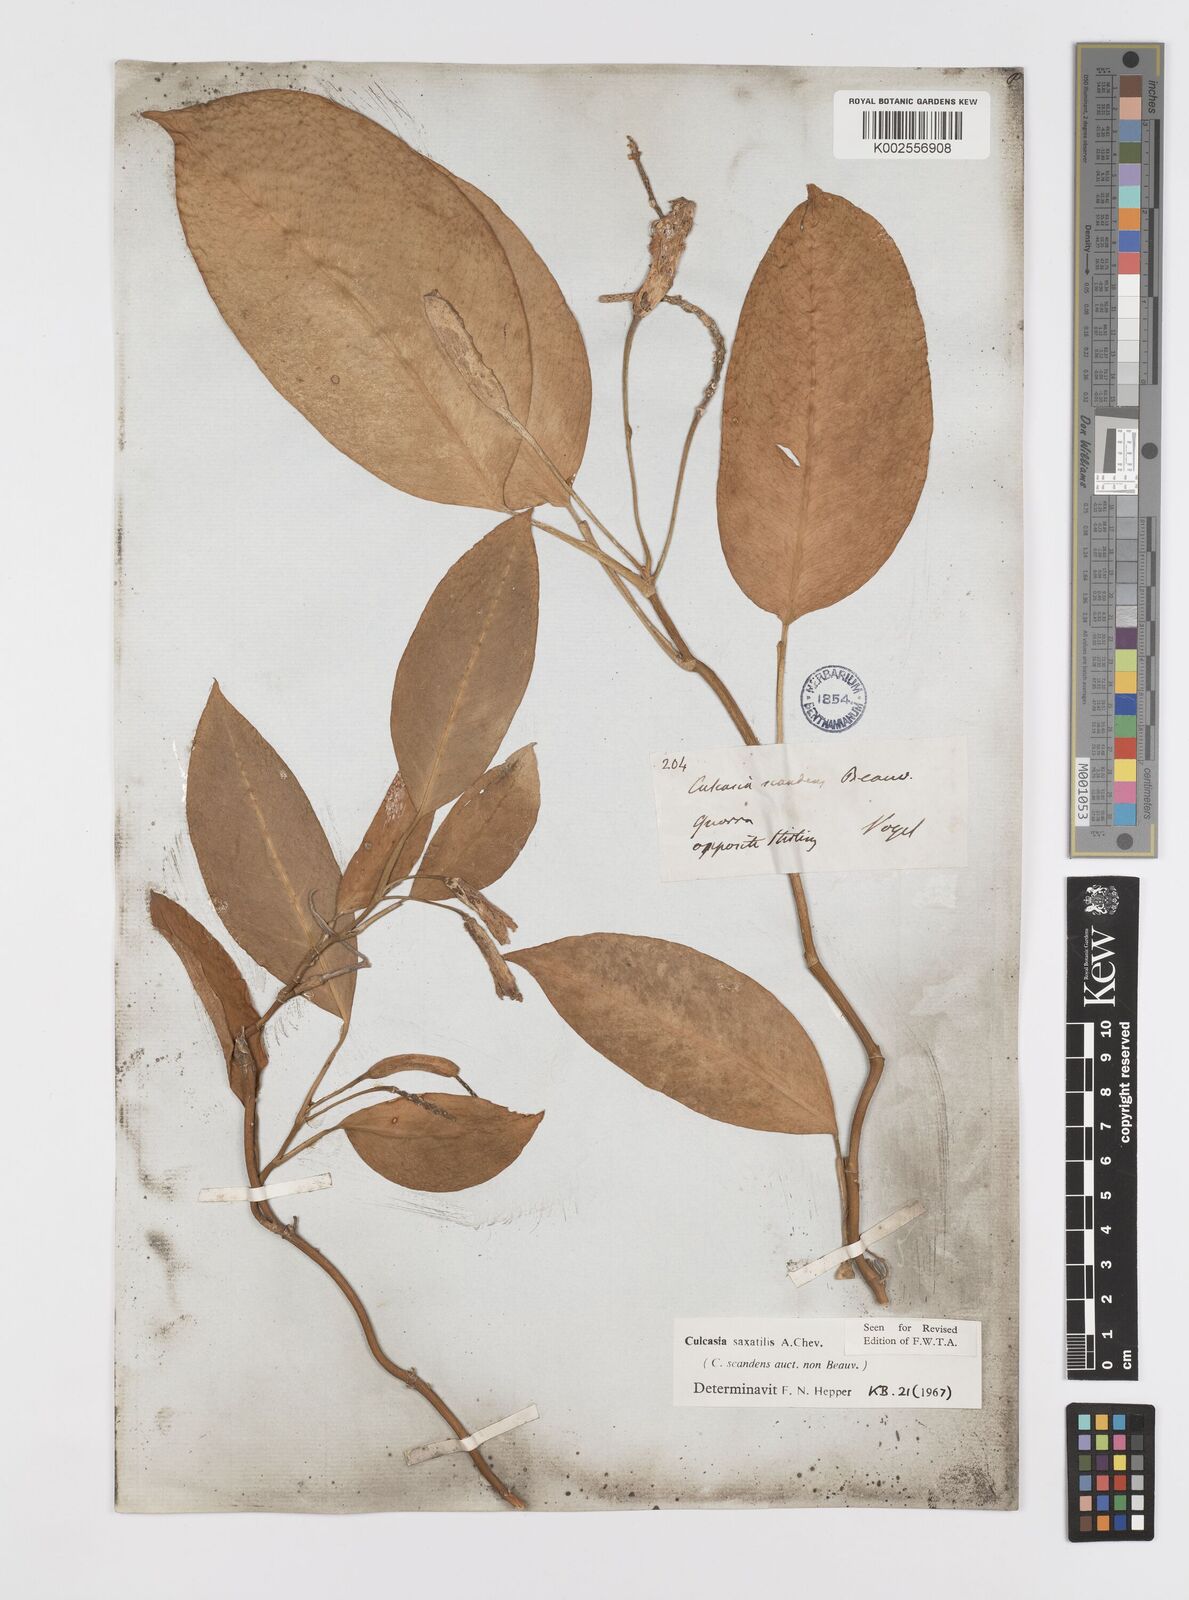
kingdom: Plantae
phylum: Tracheophyta
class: Liliopsida
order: Alismatales
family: Araceae
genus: Culcasia
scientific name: Culcasia scandens
